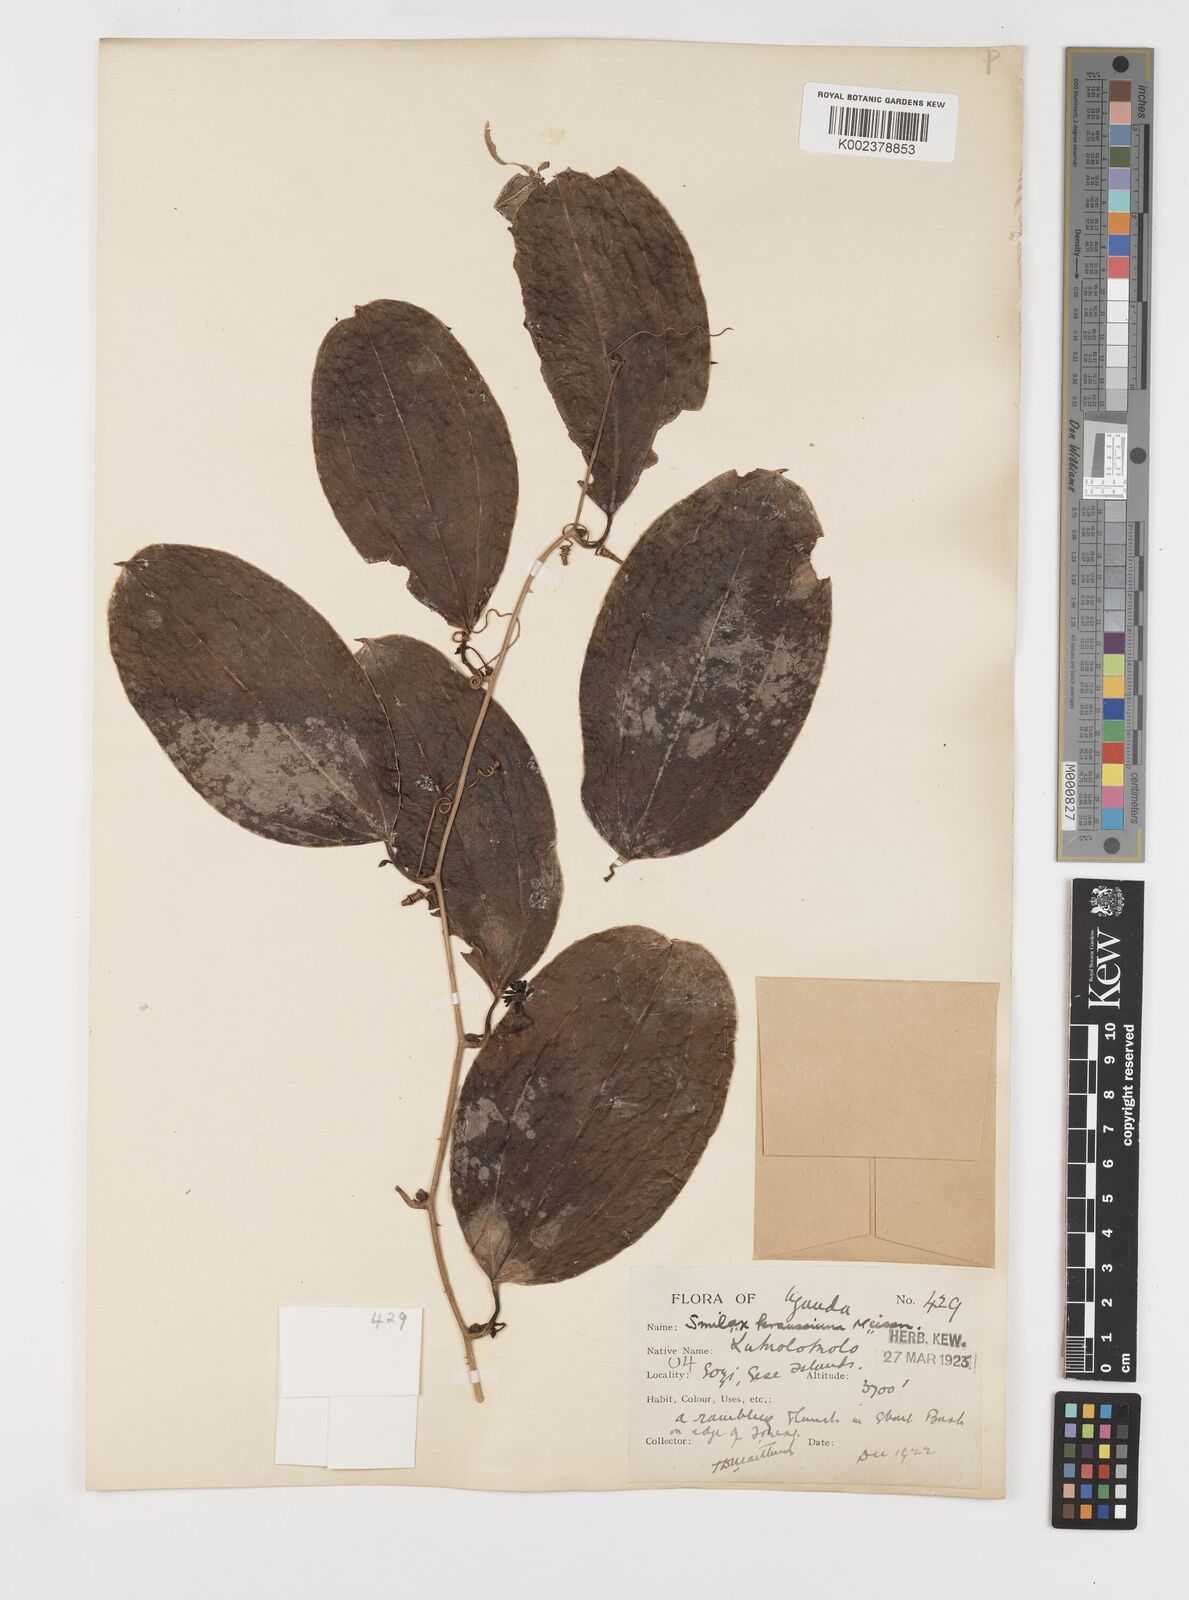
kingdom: Plantae
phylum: Tracheophyta
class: Liliopsida
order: Liliales
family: Smilacaceae
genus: Smilax
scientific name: Smilax anceps
